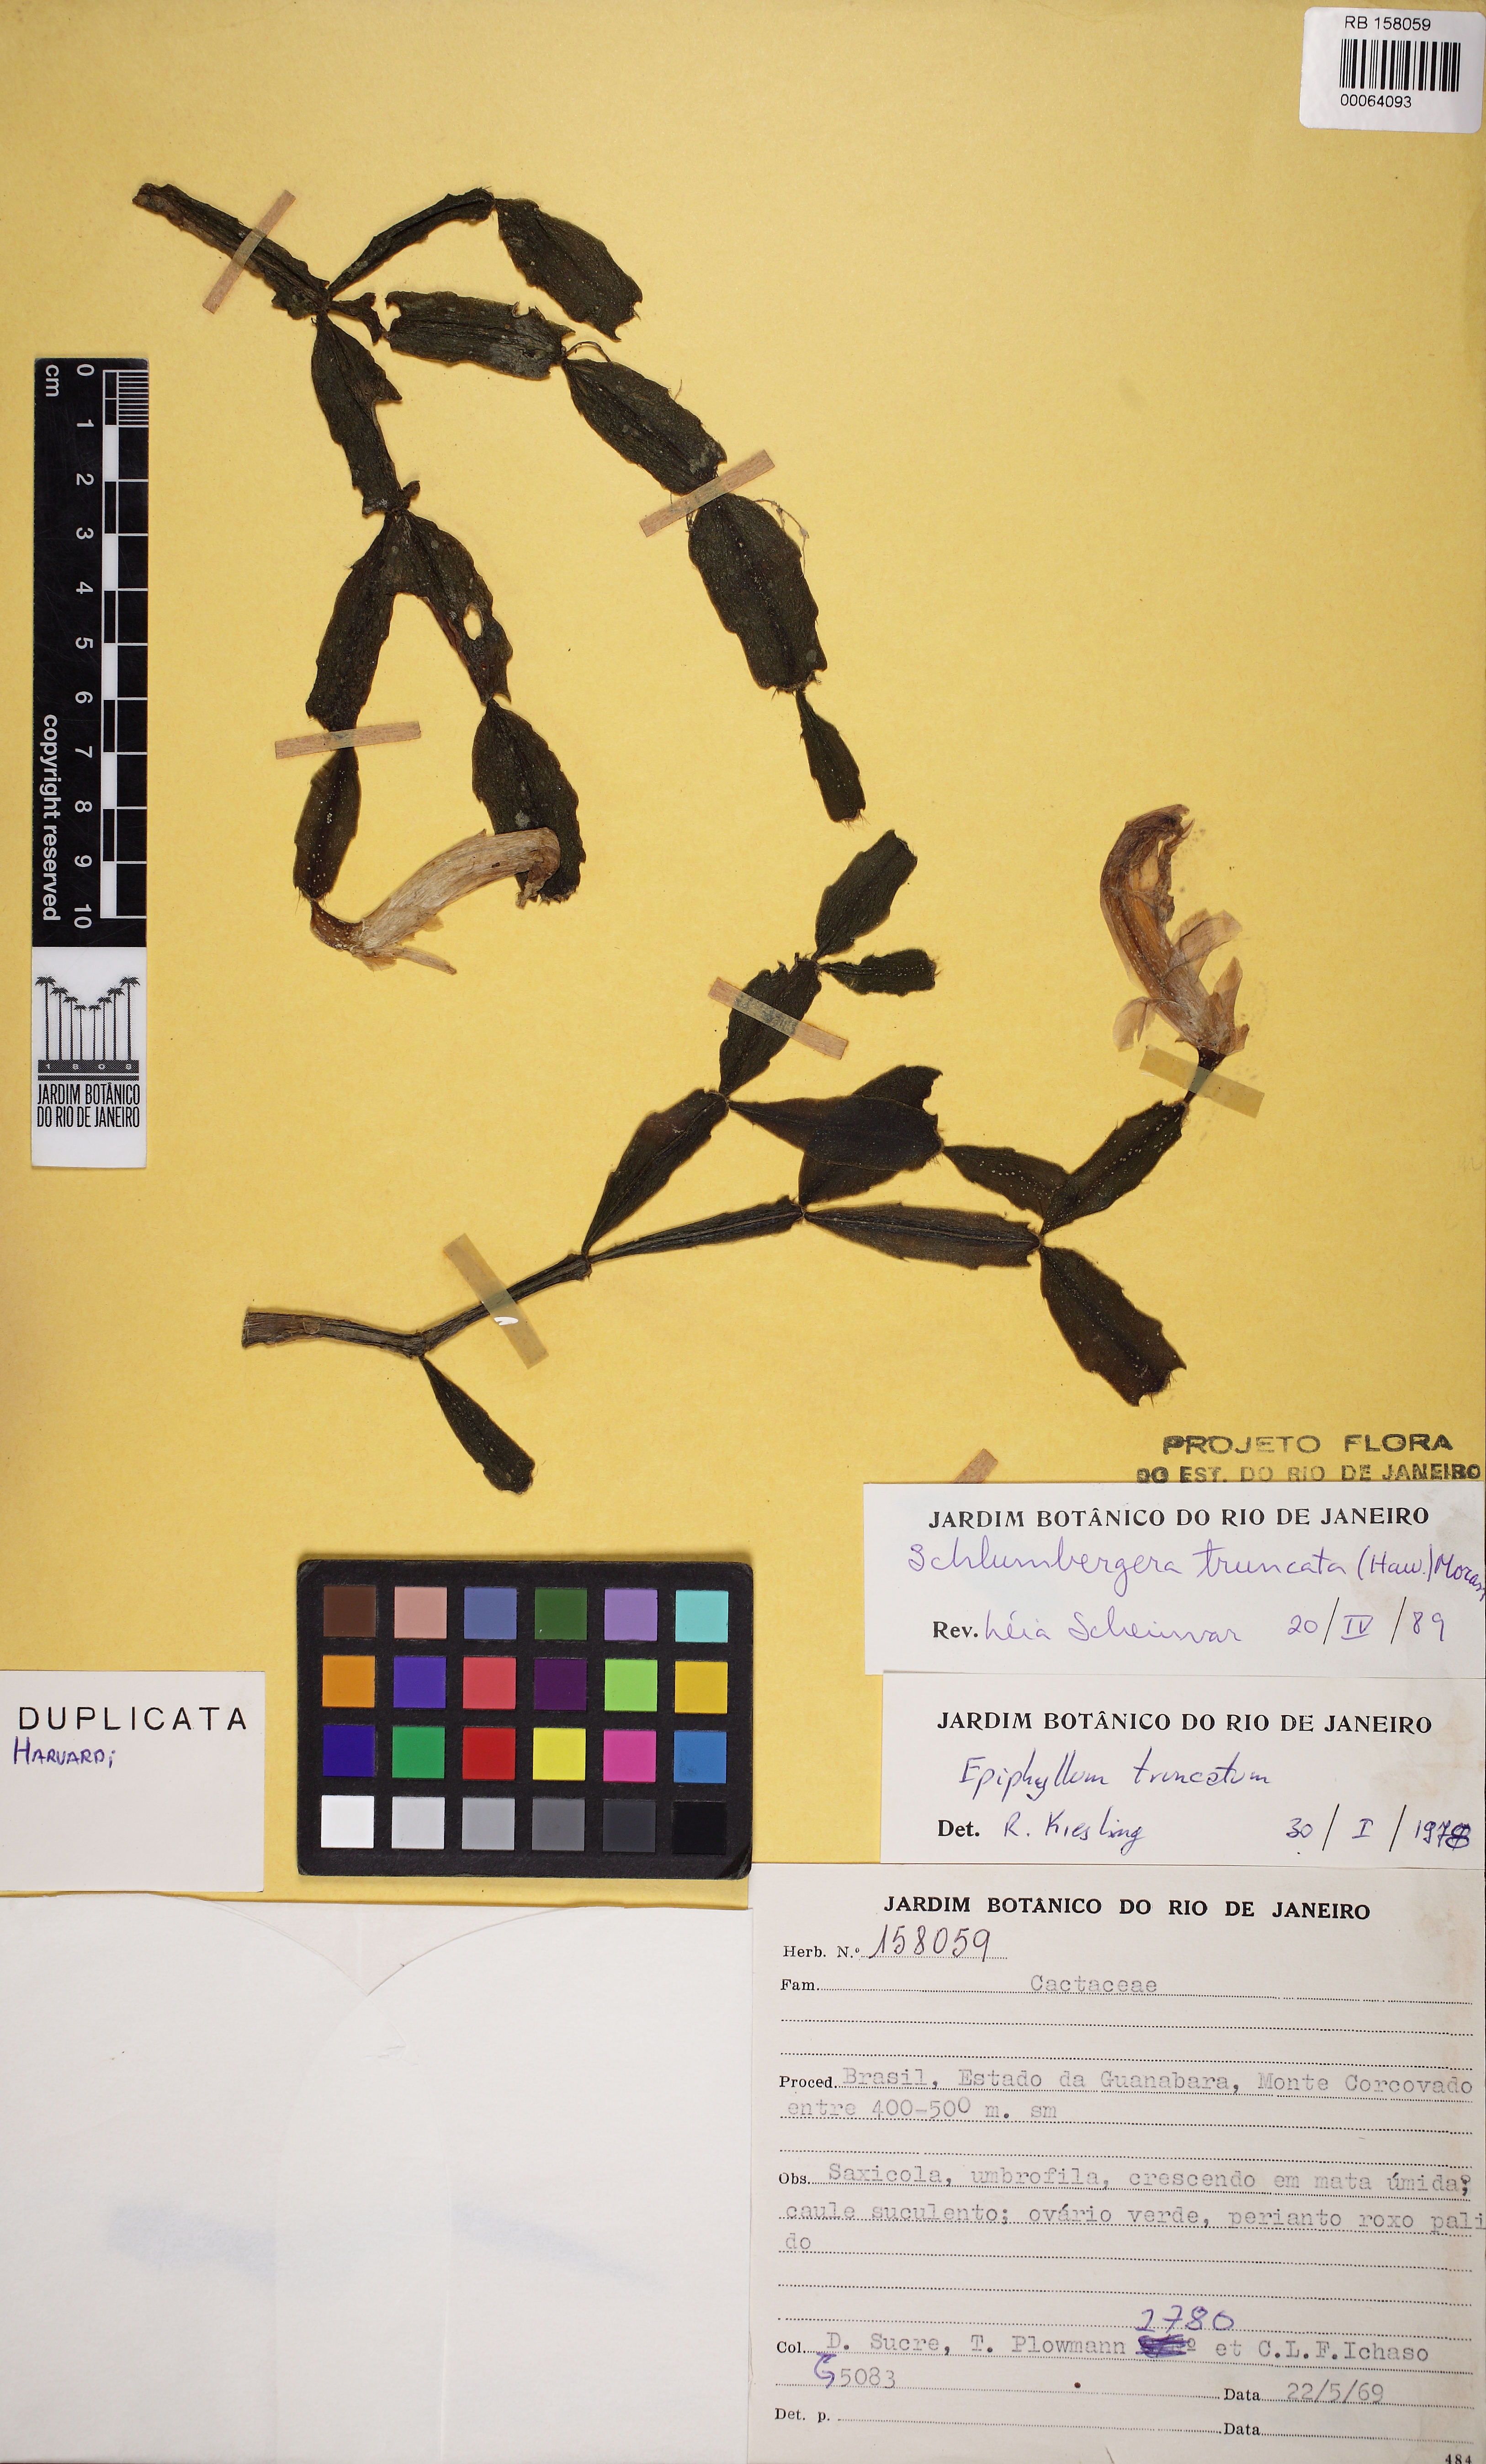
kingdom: Plantae
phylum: Tracheophyta
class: Magnoliopsida
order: Caryophyllales
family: Cactaceae
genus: Schlumbergera
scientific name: Schlumbergera truncata
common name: Thanksgiving cactus
